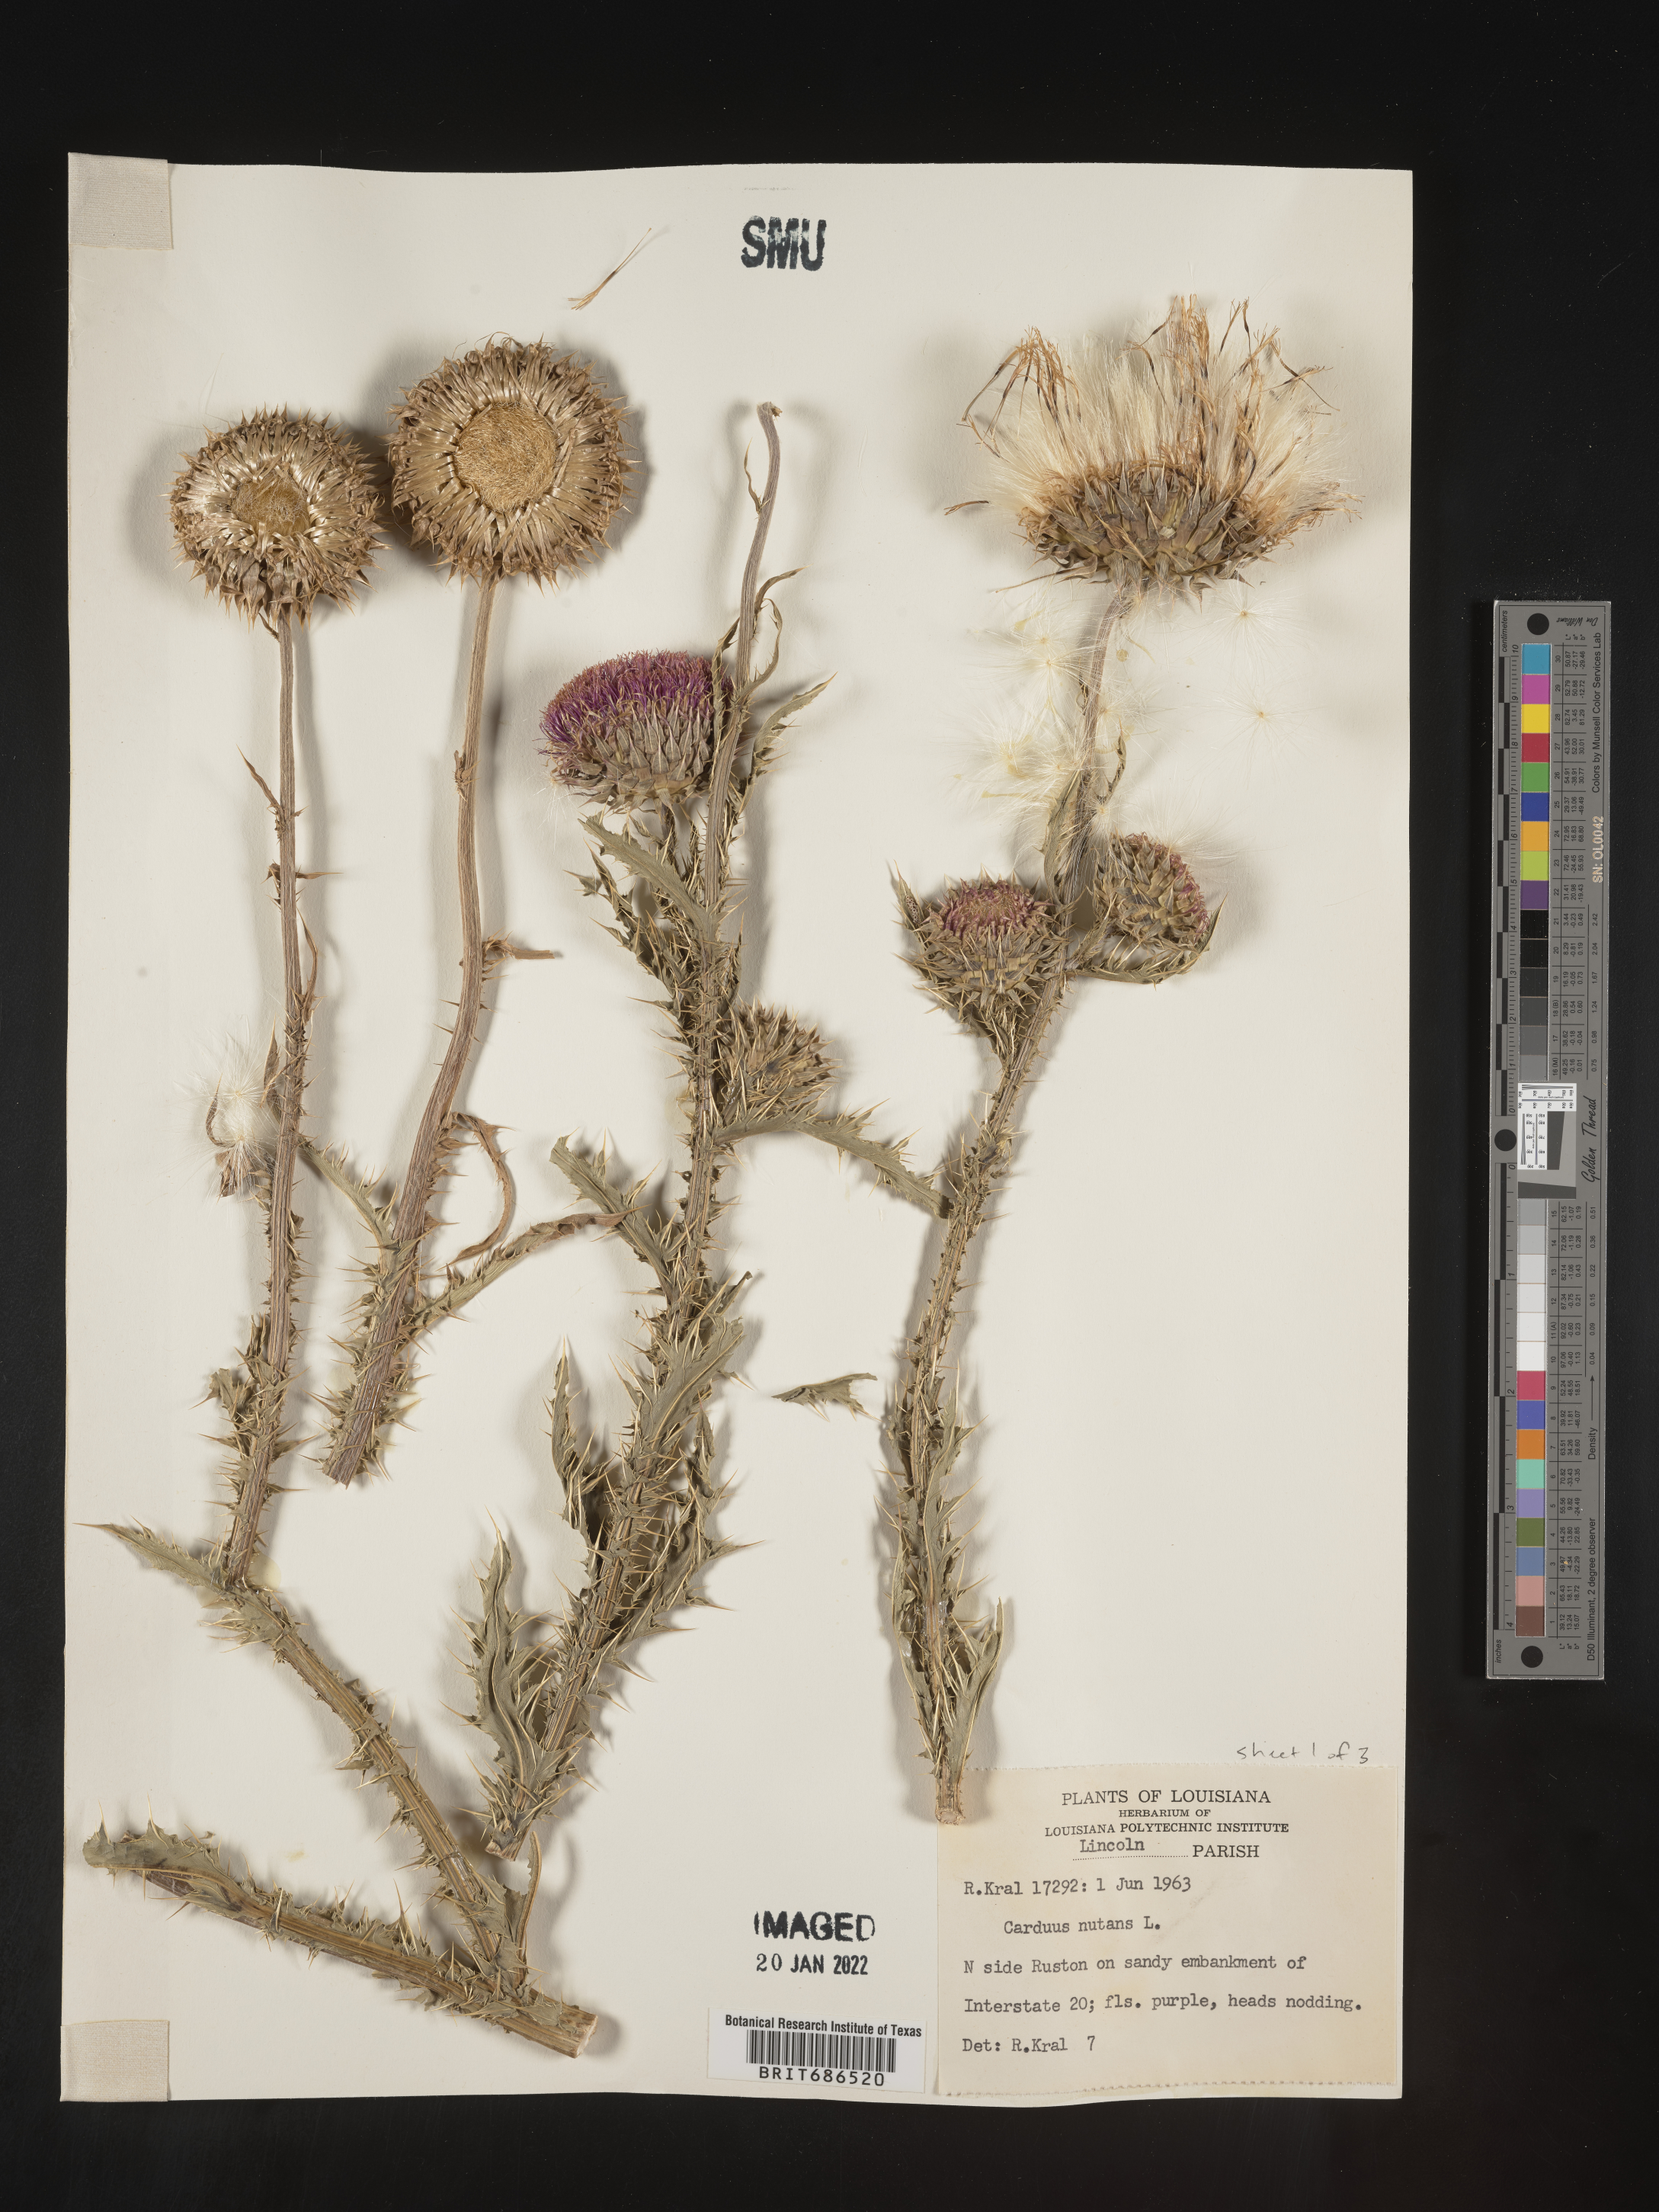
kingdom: Plantae
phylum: Tracheophyta
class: Magnoliopsida
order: Asterales
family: Asteraceae
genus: Carduus
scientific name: Carduus nutans
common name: Musk thistle
